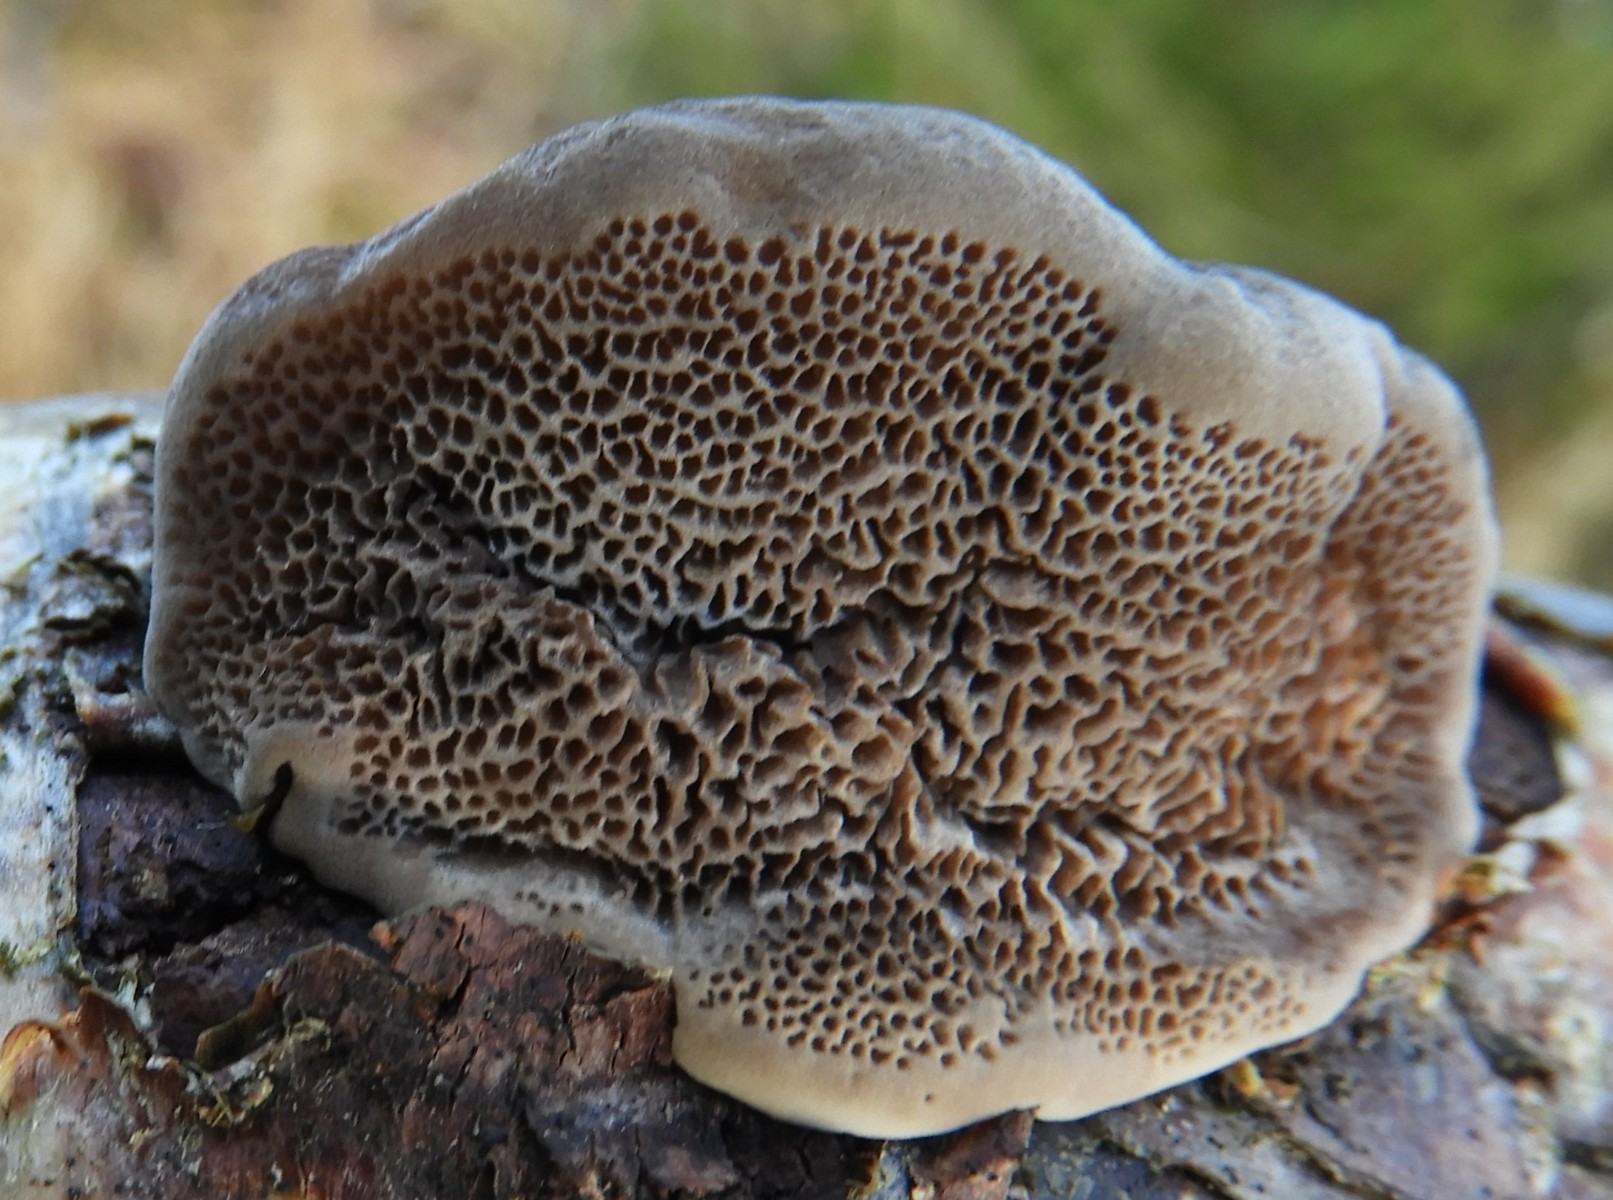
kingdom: Fungi
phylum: Basidiomycota
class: Agaricomycetes
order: Polyporales
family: Polyporaceae
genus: Trametes
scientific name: Trametes
